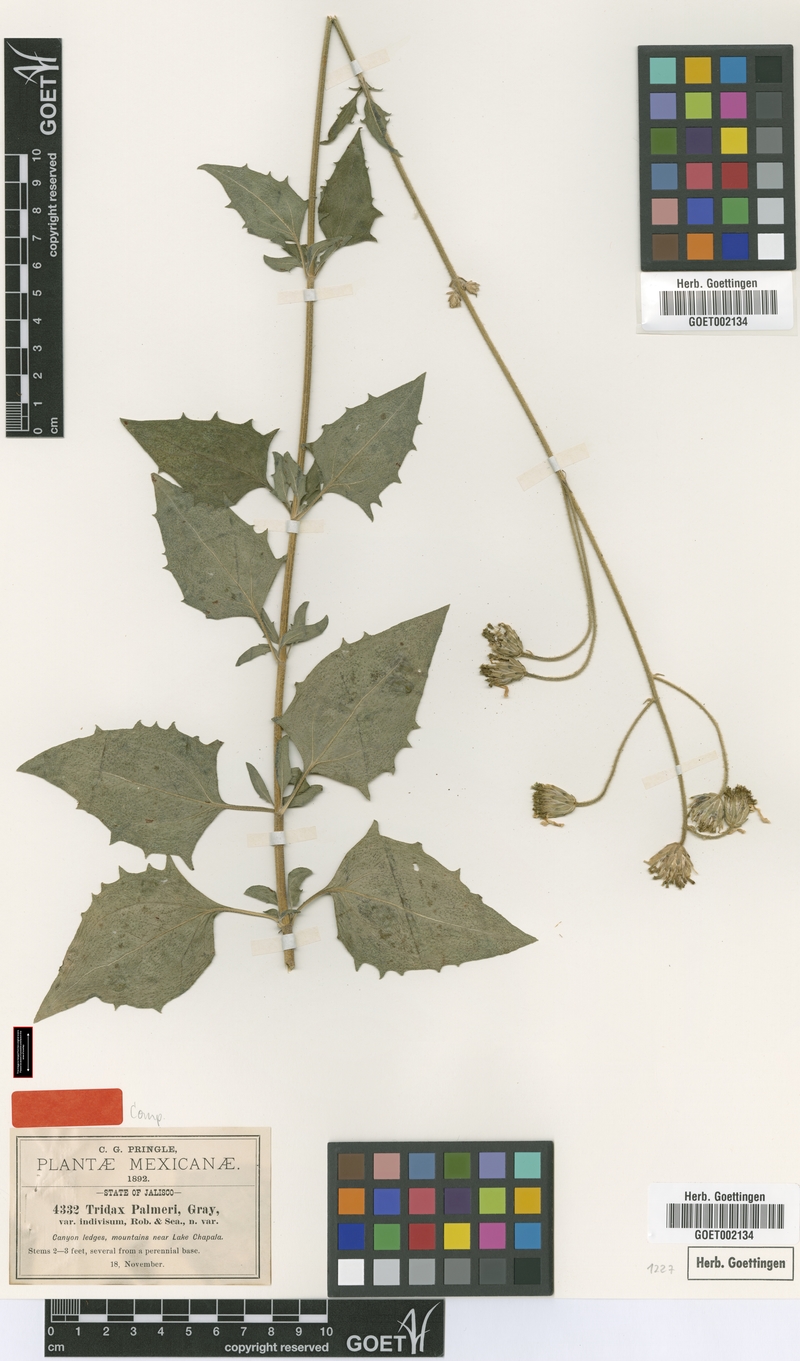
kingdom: Plantae
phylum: Tracheophyta
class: Magnoliopsida
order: Asterales
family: Asteraceae
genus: Tridax
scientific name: Tridax palmeri
